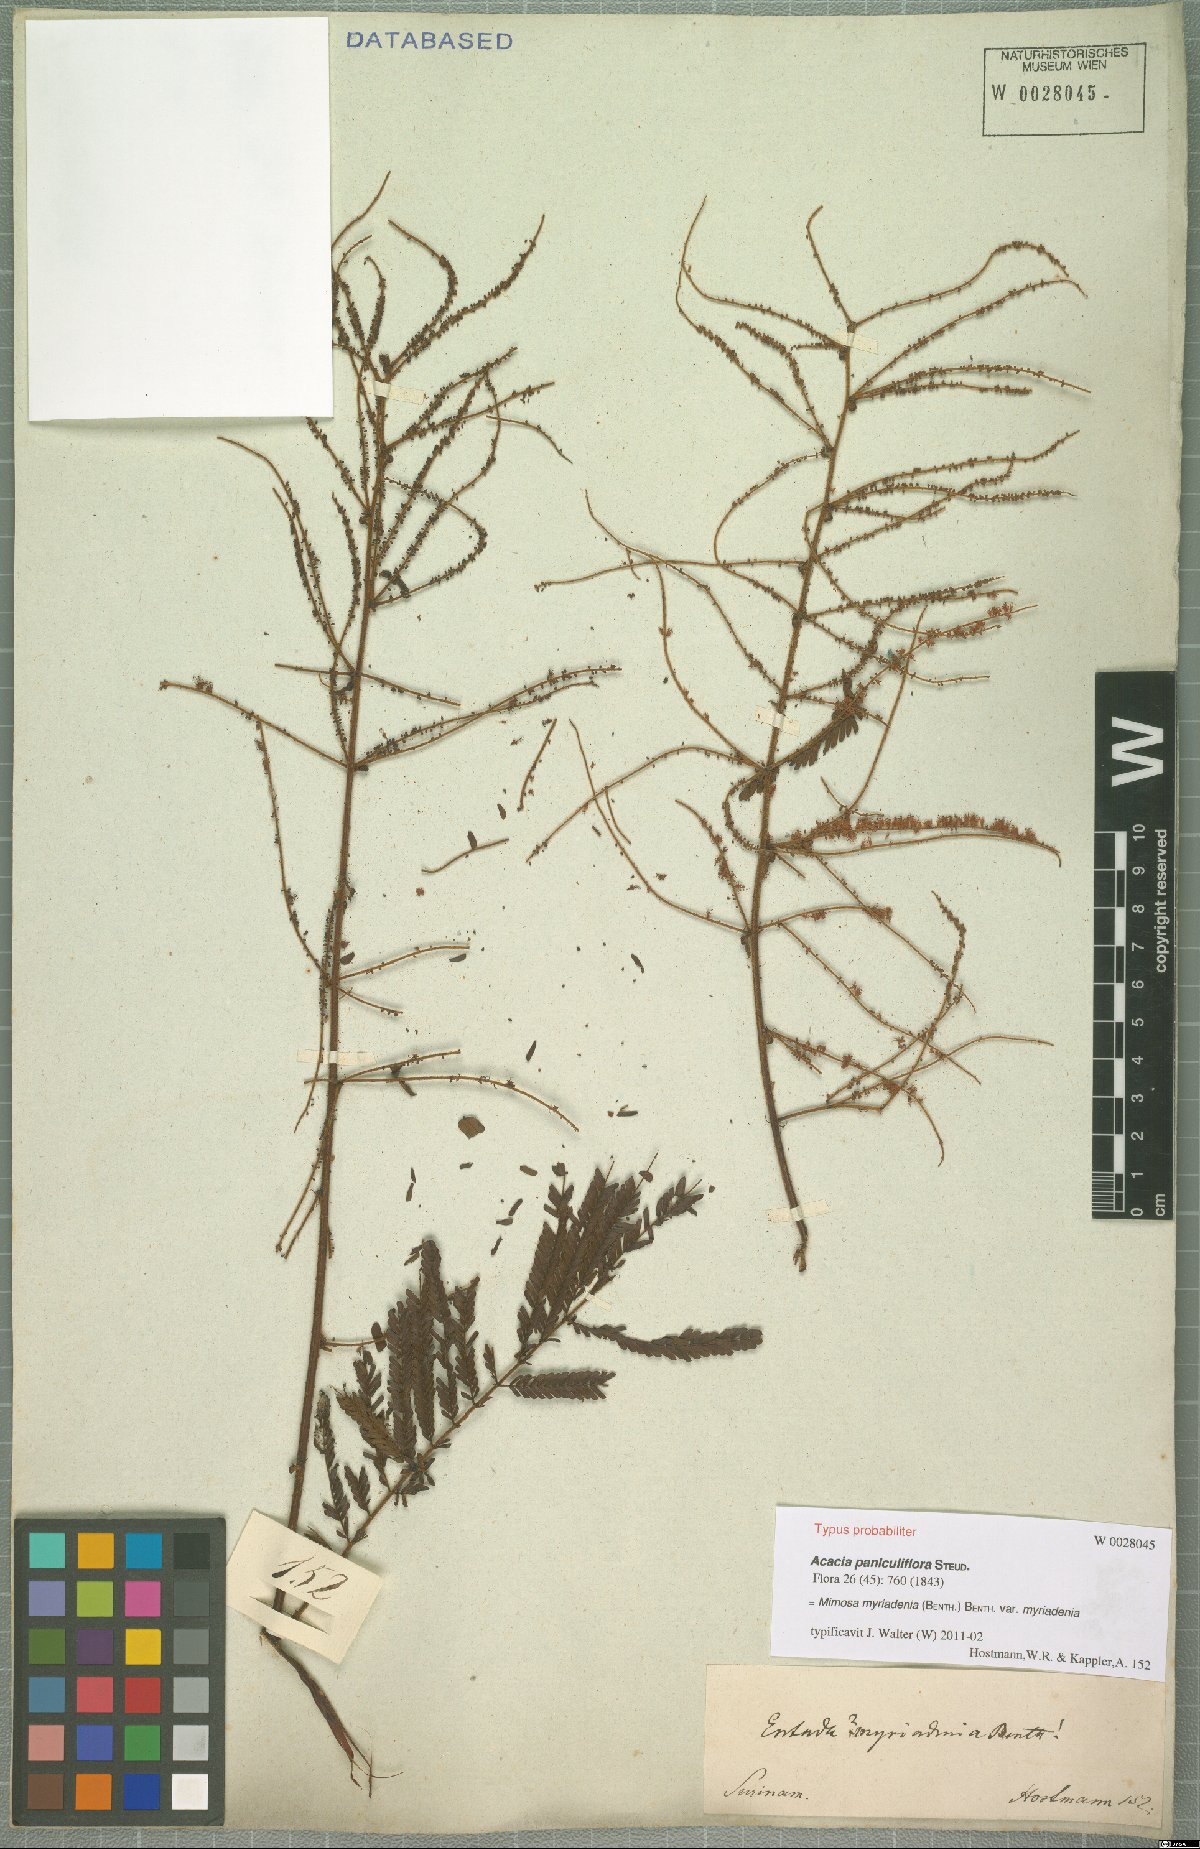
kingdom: Plantae
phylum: Tracheophyta
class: Magnoliopsida
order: Fabales
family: Fabaceae
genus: Mimosa
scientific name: Mimosa myriadenia
